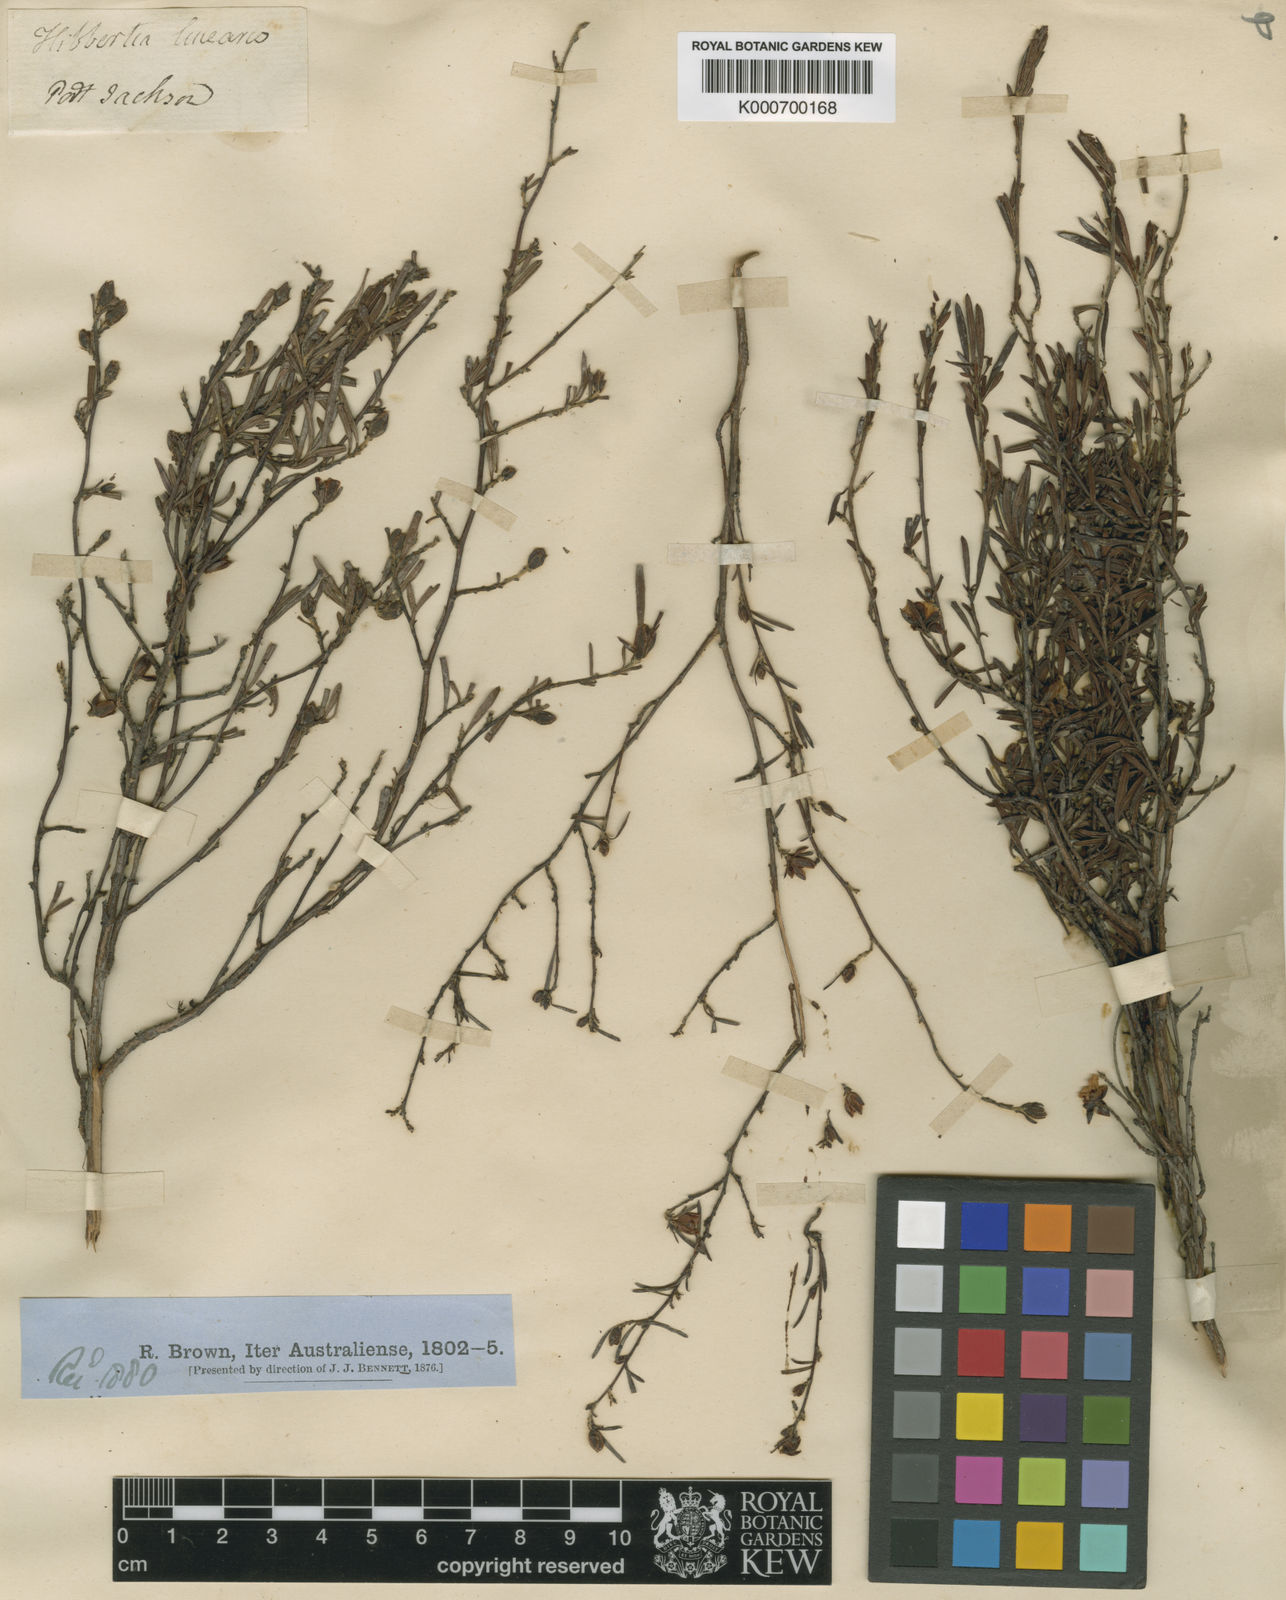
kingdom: Plantae
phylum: Tracheophyta
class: Magnoliopsida
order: Dilleniales
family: Dilleniaceae
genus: Hibbertia
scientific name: Hibbertia linearis
